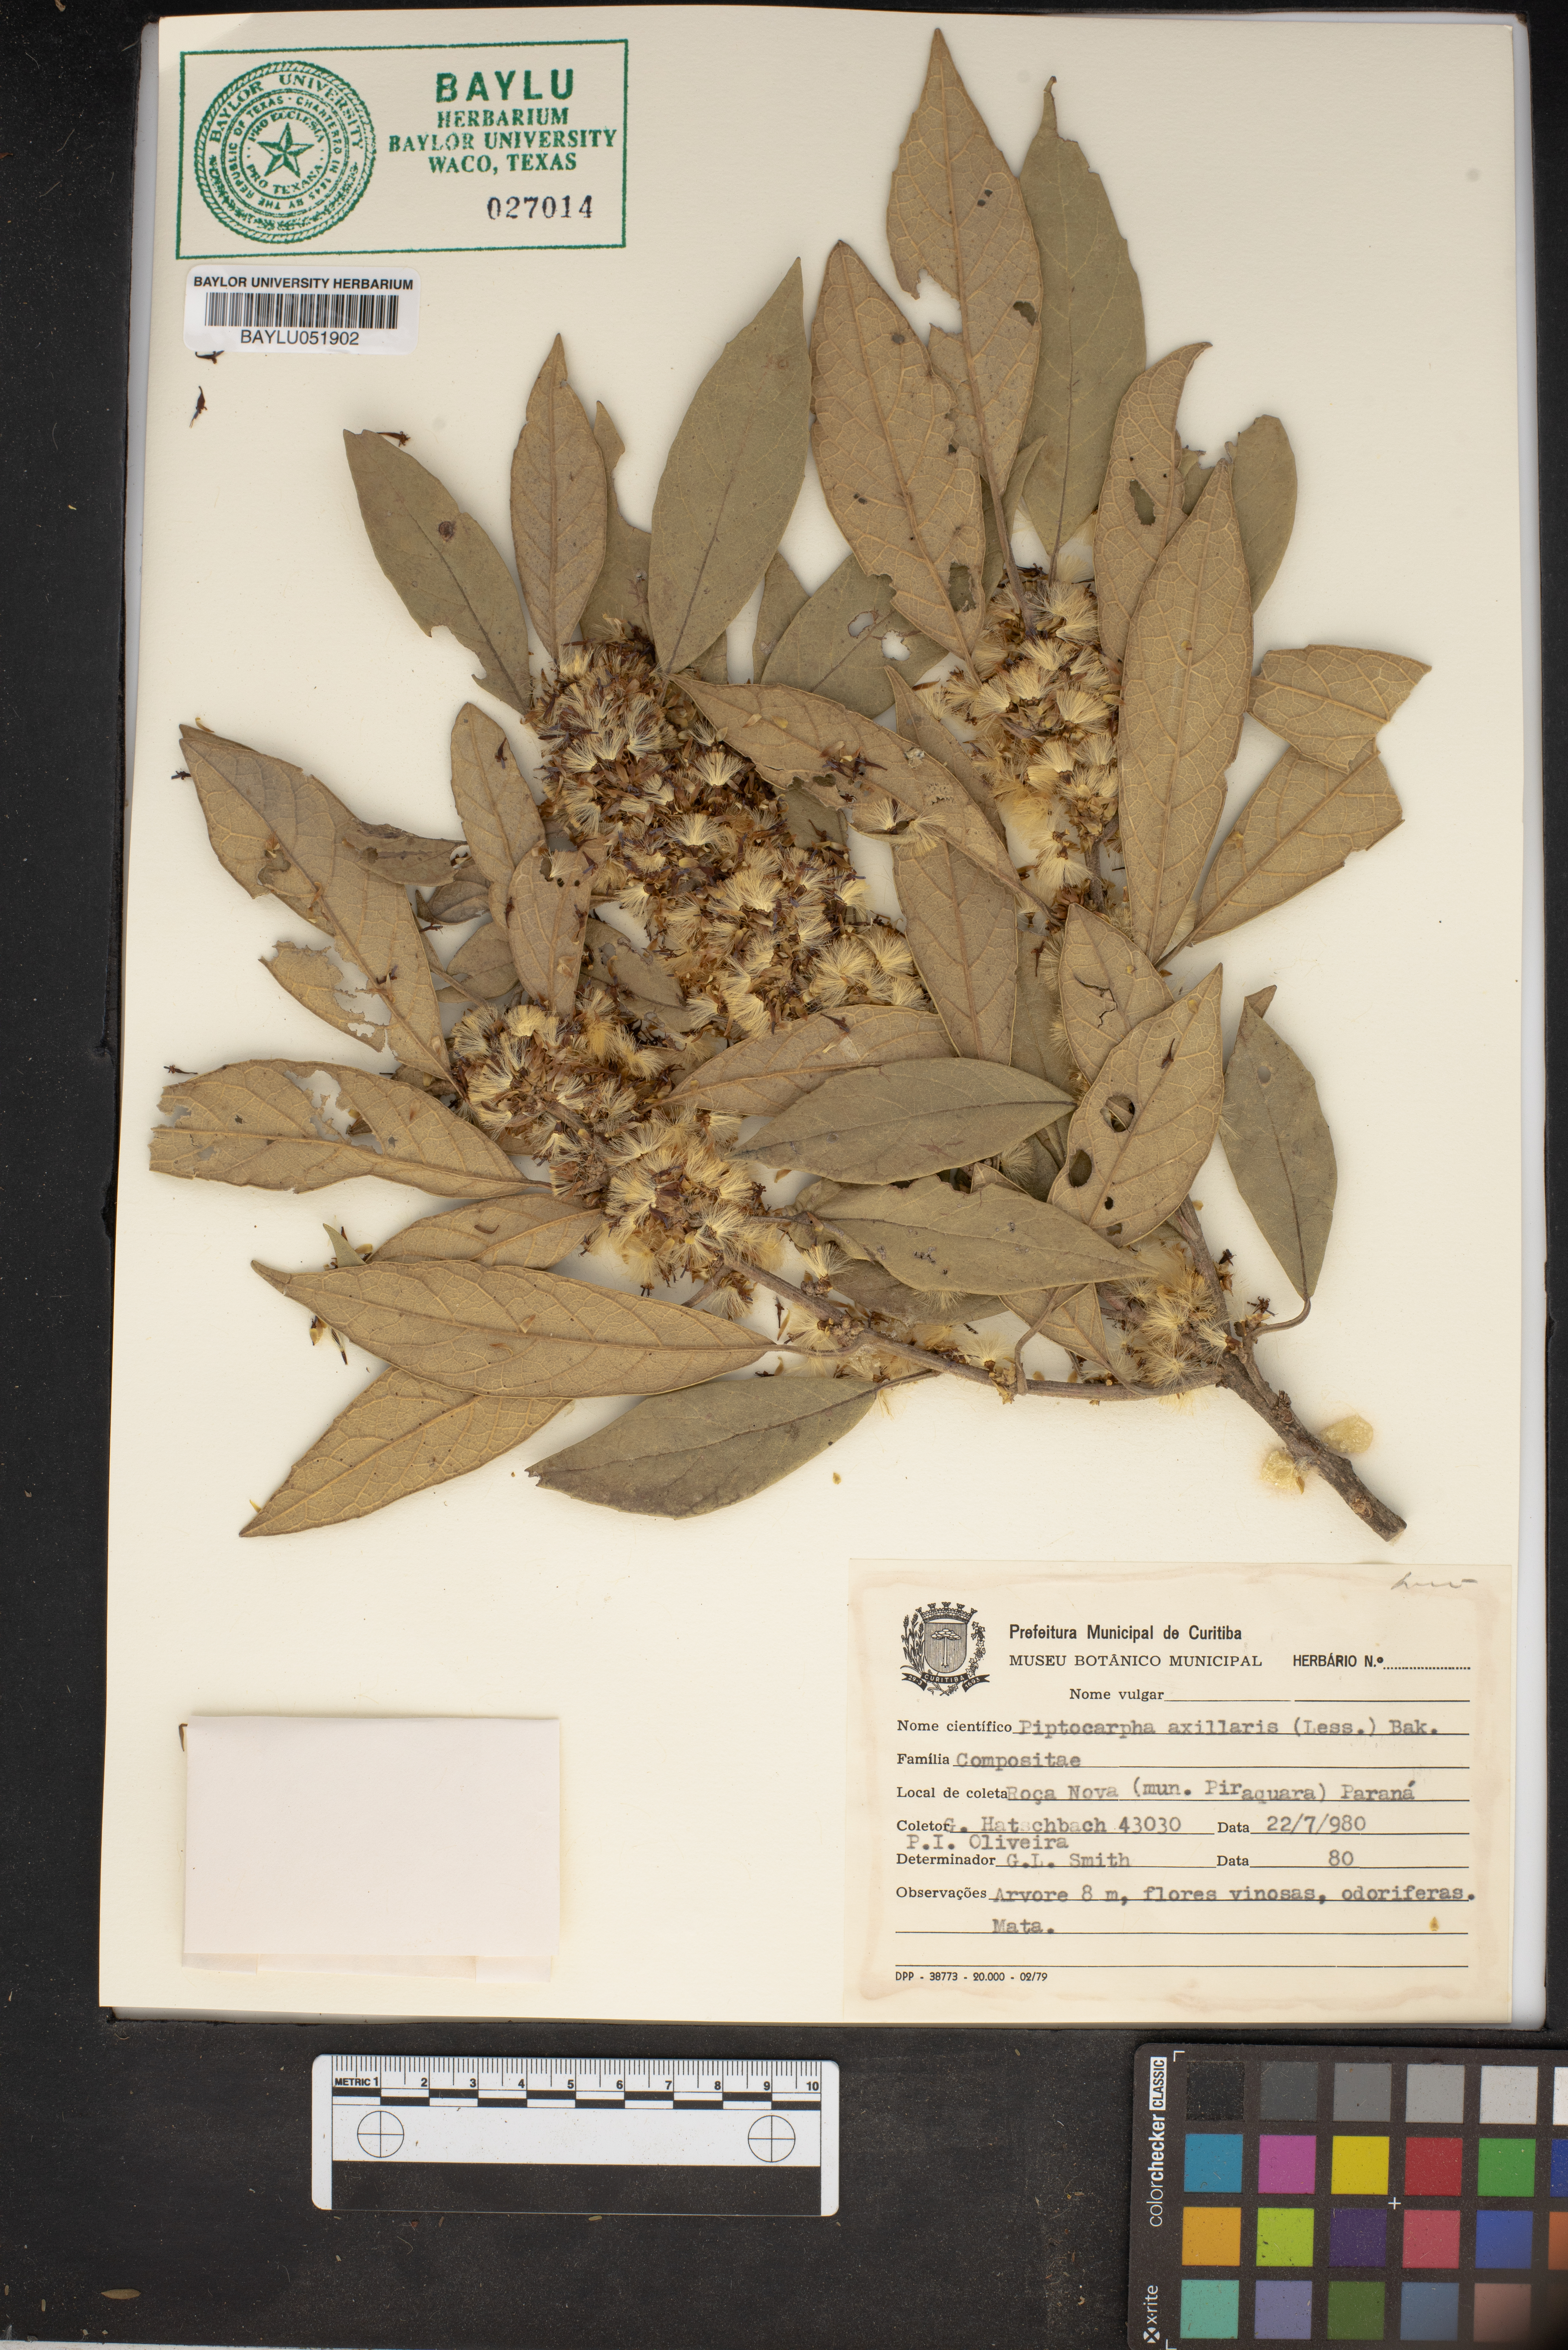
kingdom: Plantae
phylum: Tracheophyta
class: Magnoliopsida
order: Asterales
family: Asteraceae
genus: Piptocarpha
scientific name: Piptocarpha axillaris
